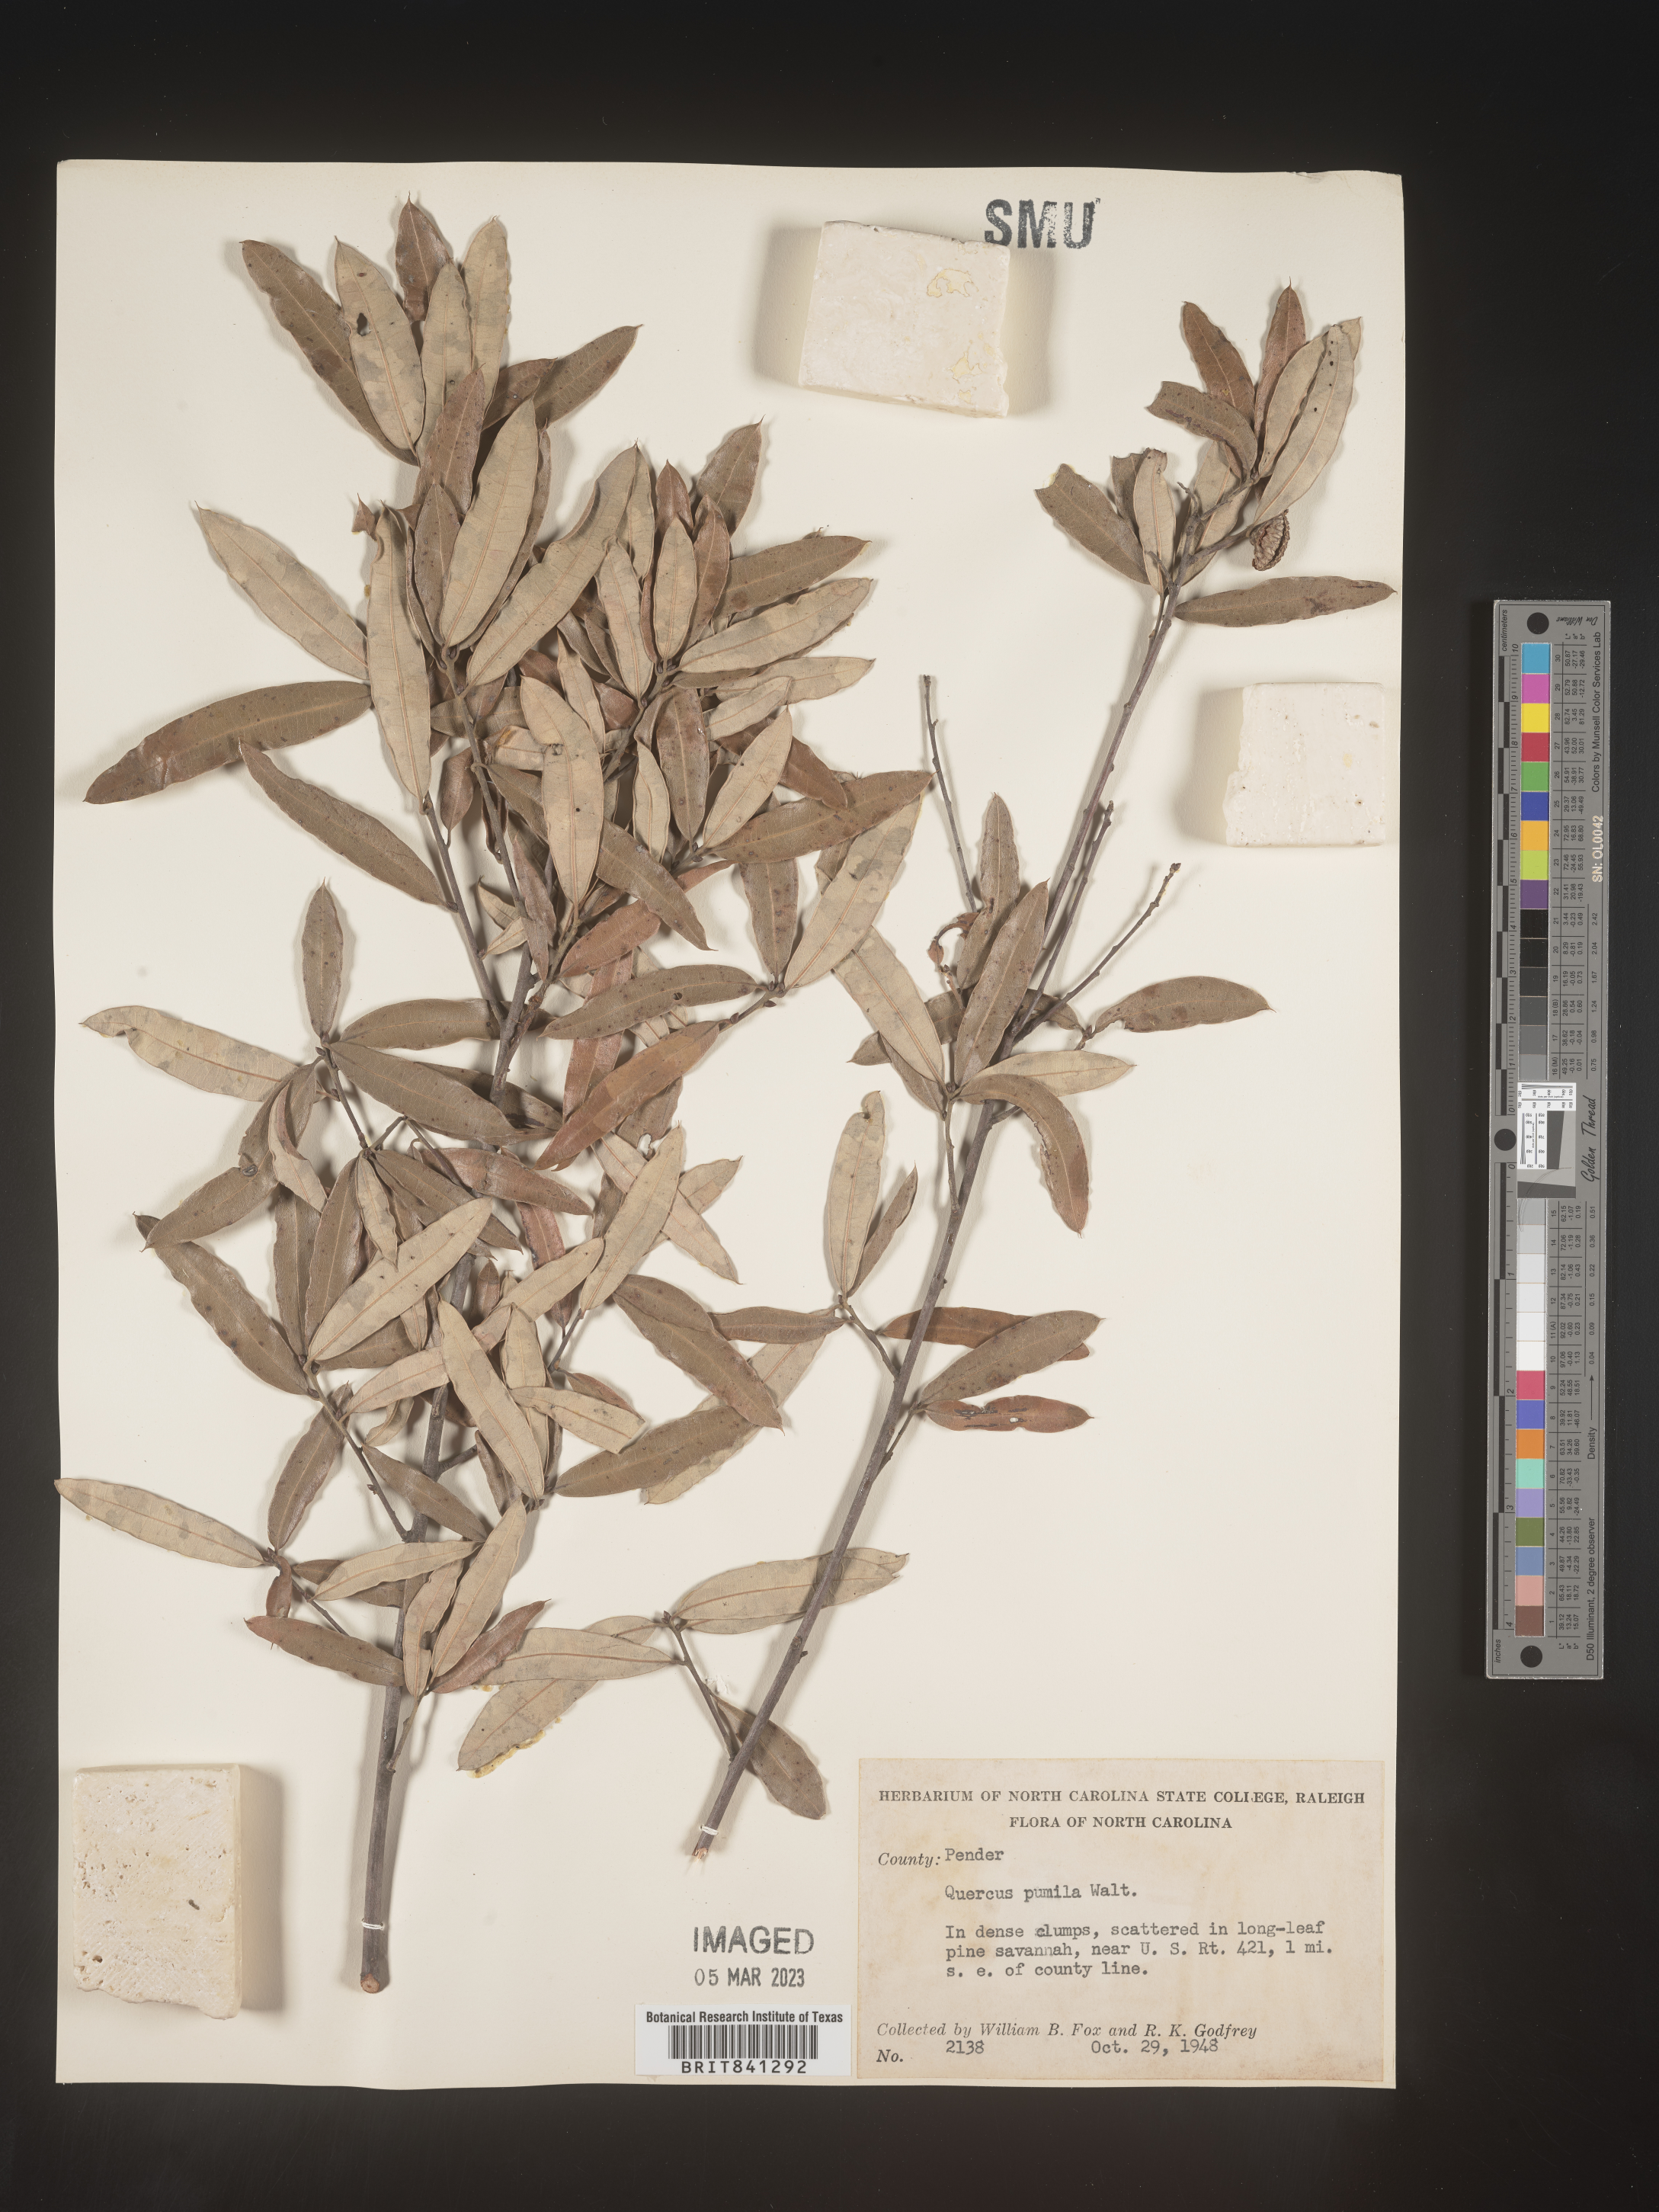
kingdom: Plantae
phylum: Tracheophyta
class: Magnoliopsida
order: Fagales
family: Fagaceae
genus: Quercus
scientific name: Quercus pumila
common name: Runner oak
